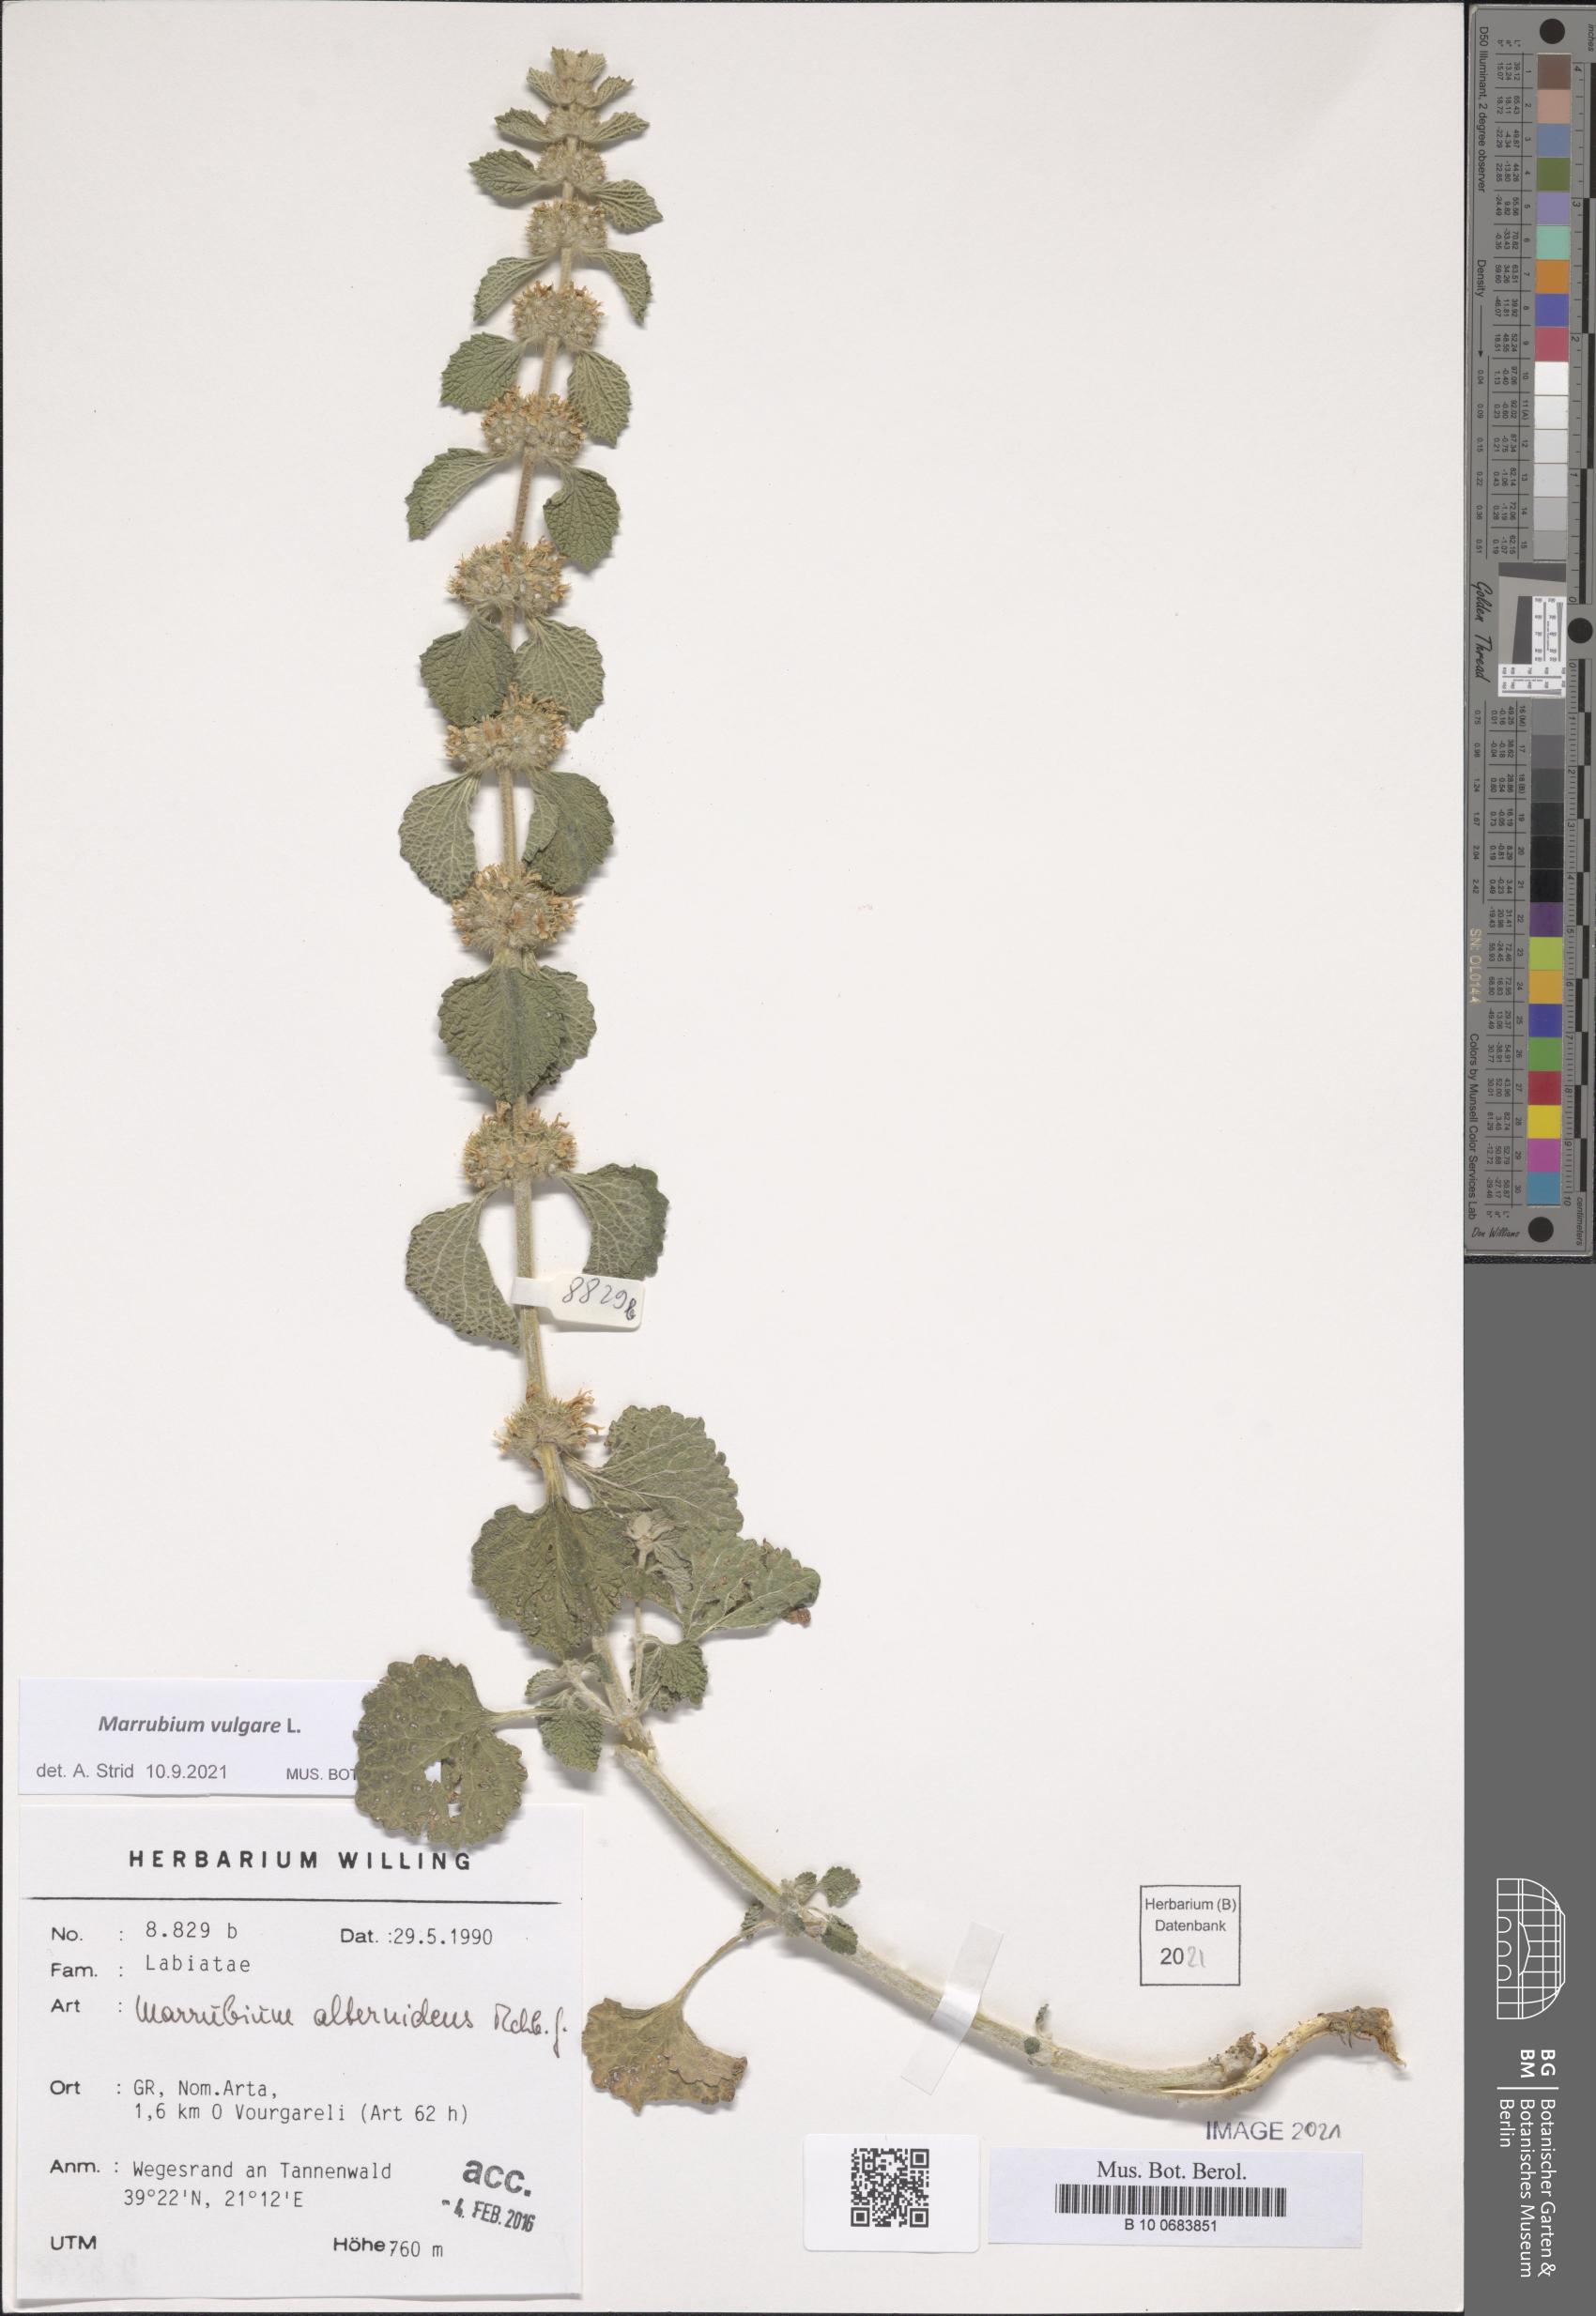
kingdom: Plantae
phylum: Tracheophyta
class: Magnoliopsida
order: Lamiales
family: Lamiaceae
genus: Marrubium
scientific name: Marrubium vulgare
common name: Horehound
